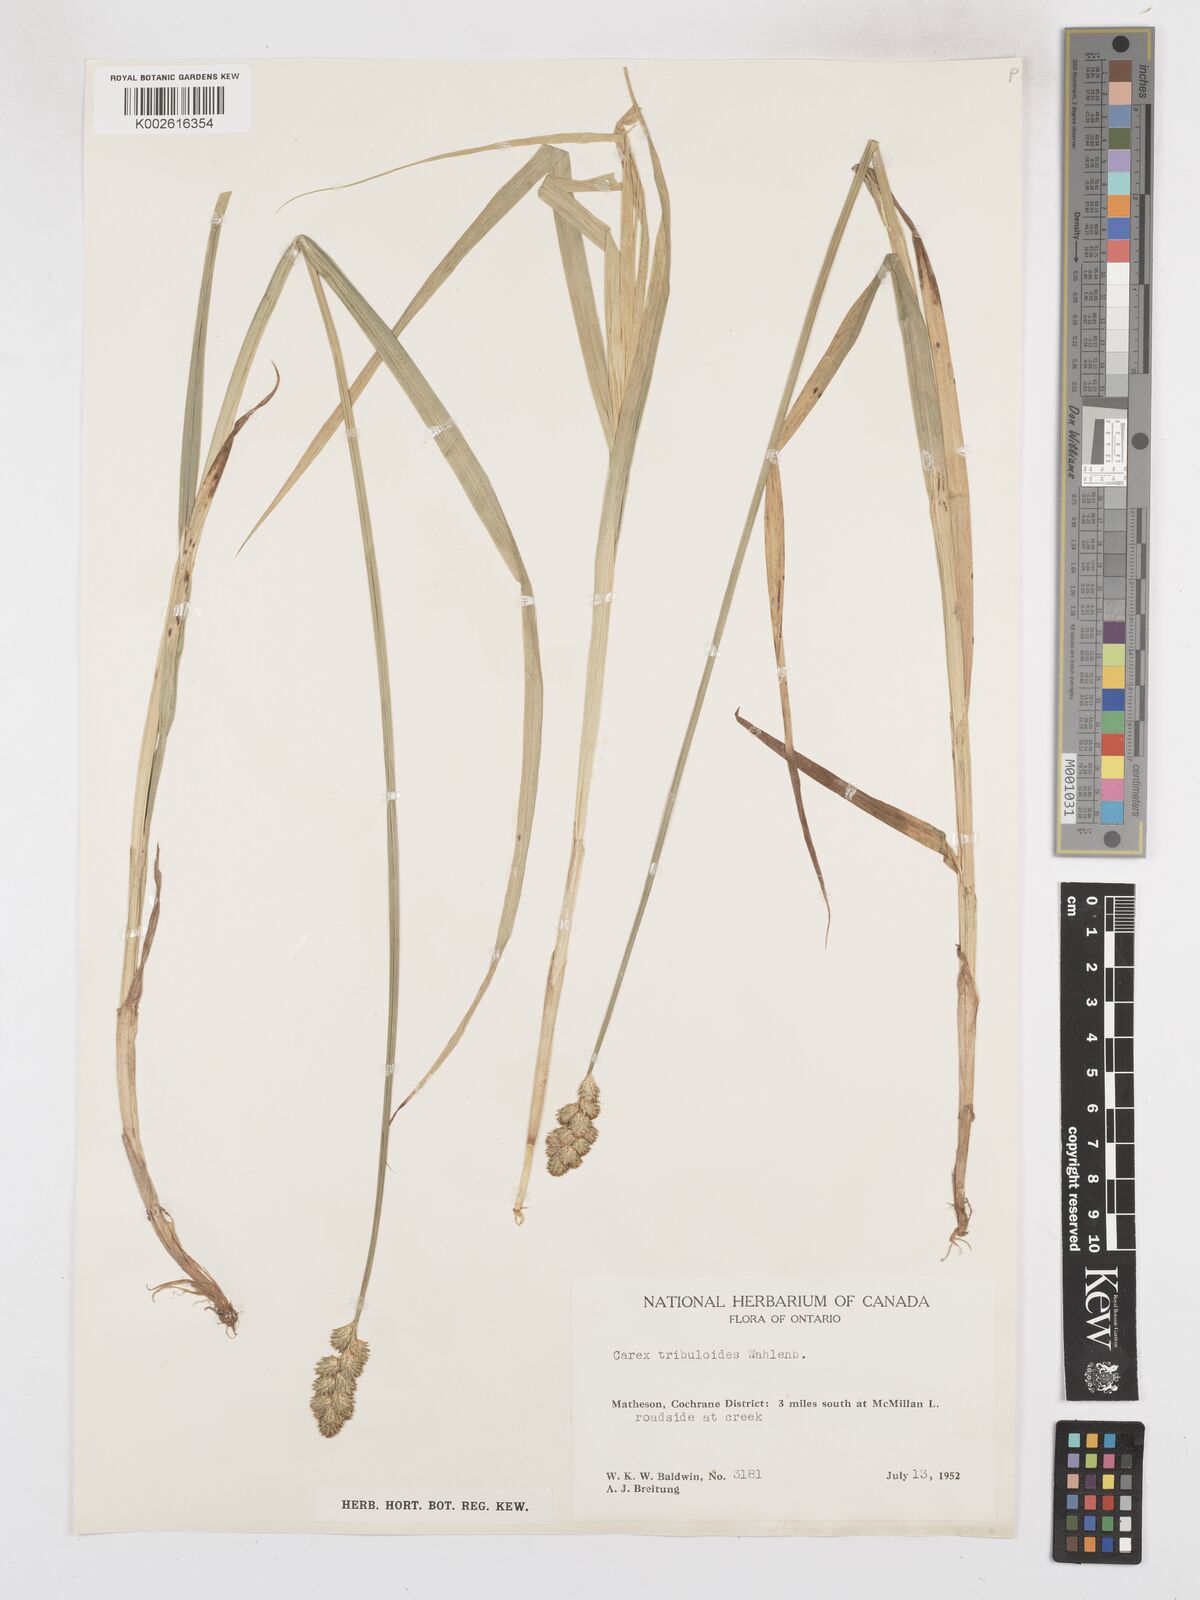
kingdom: Plantae
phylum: Tracheophyta
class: Liliopsida
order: Poales
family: Cyperaceae
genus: Carex
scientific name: Carex tribuloides
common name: Blunt broom sedge
